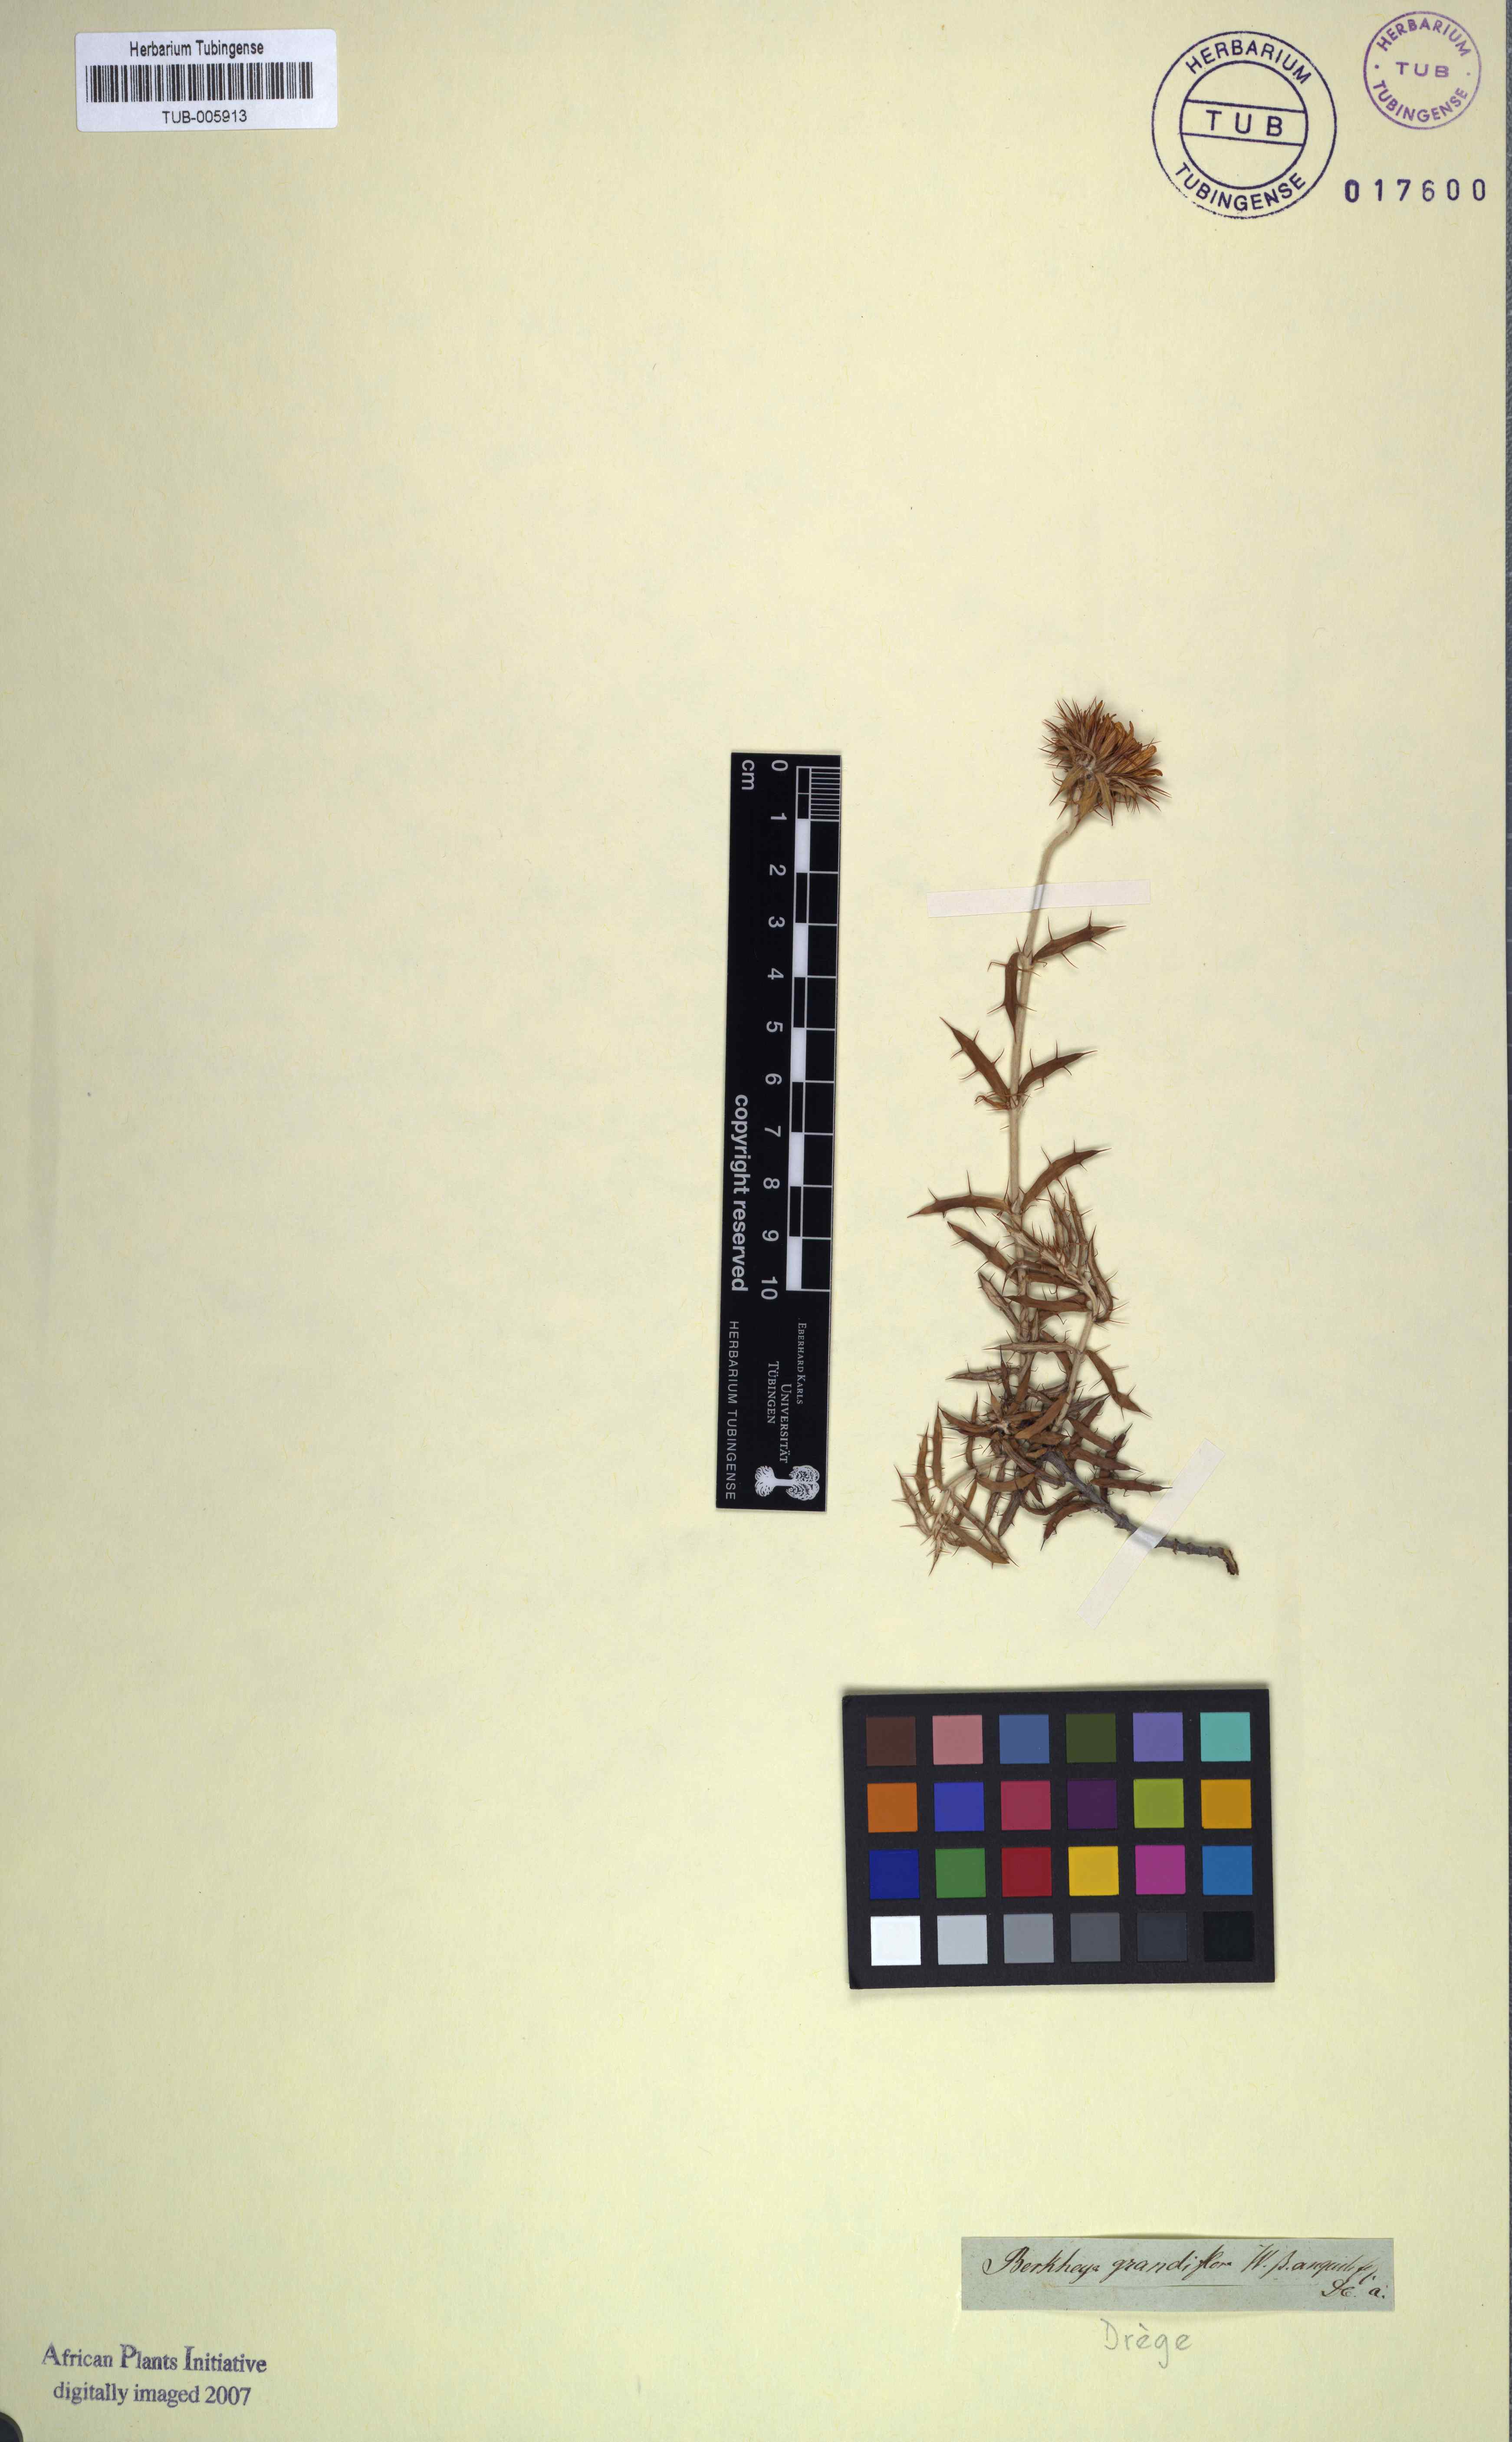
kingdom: Plantae
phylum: Tracheophyta
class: Magnoliopsida
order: Asterales
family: Asteraceae
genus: Berkheya
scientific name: Berkheya barbata
